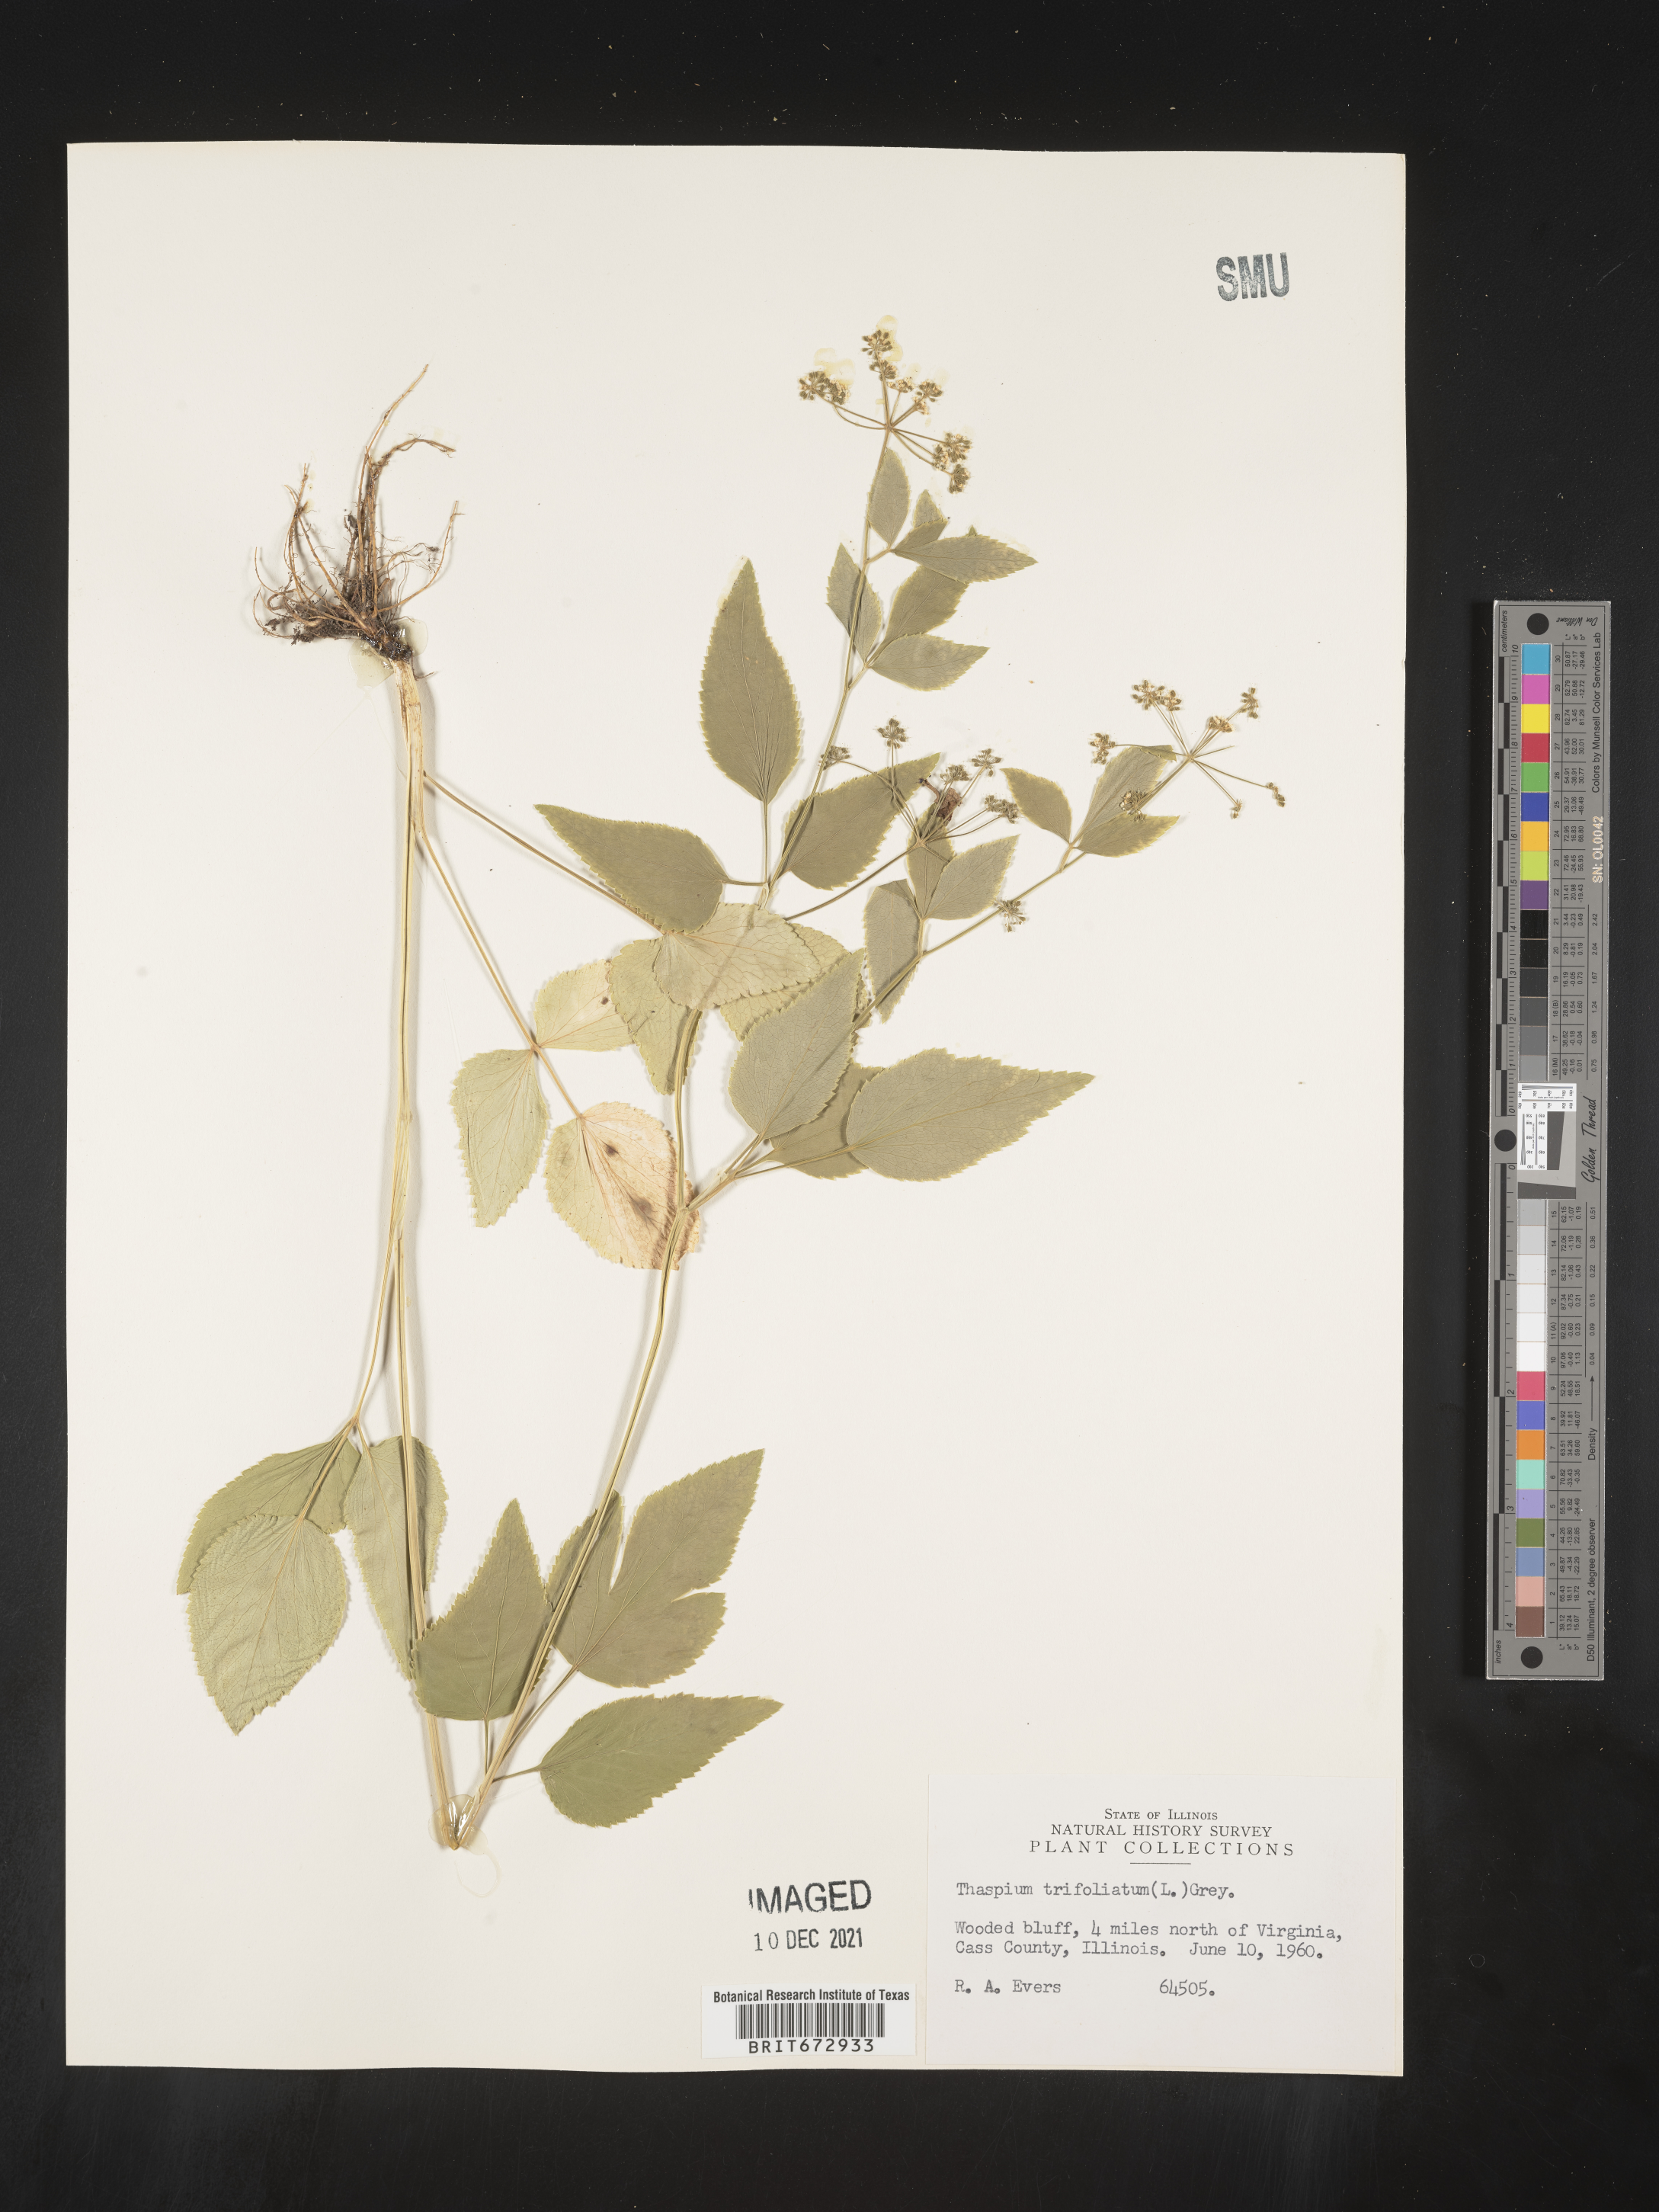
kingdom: Plantae
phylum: Tracheophyta
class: Magnoliopsida
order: Apiales
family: Apiaceae
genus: Thaspium
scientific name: Thaspium
